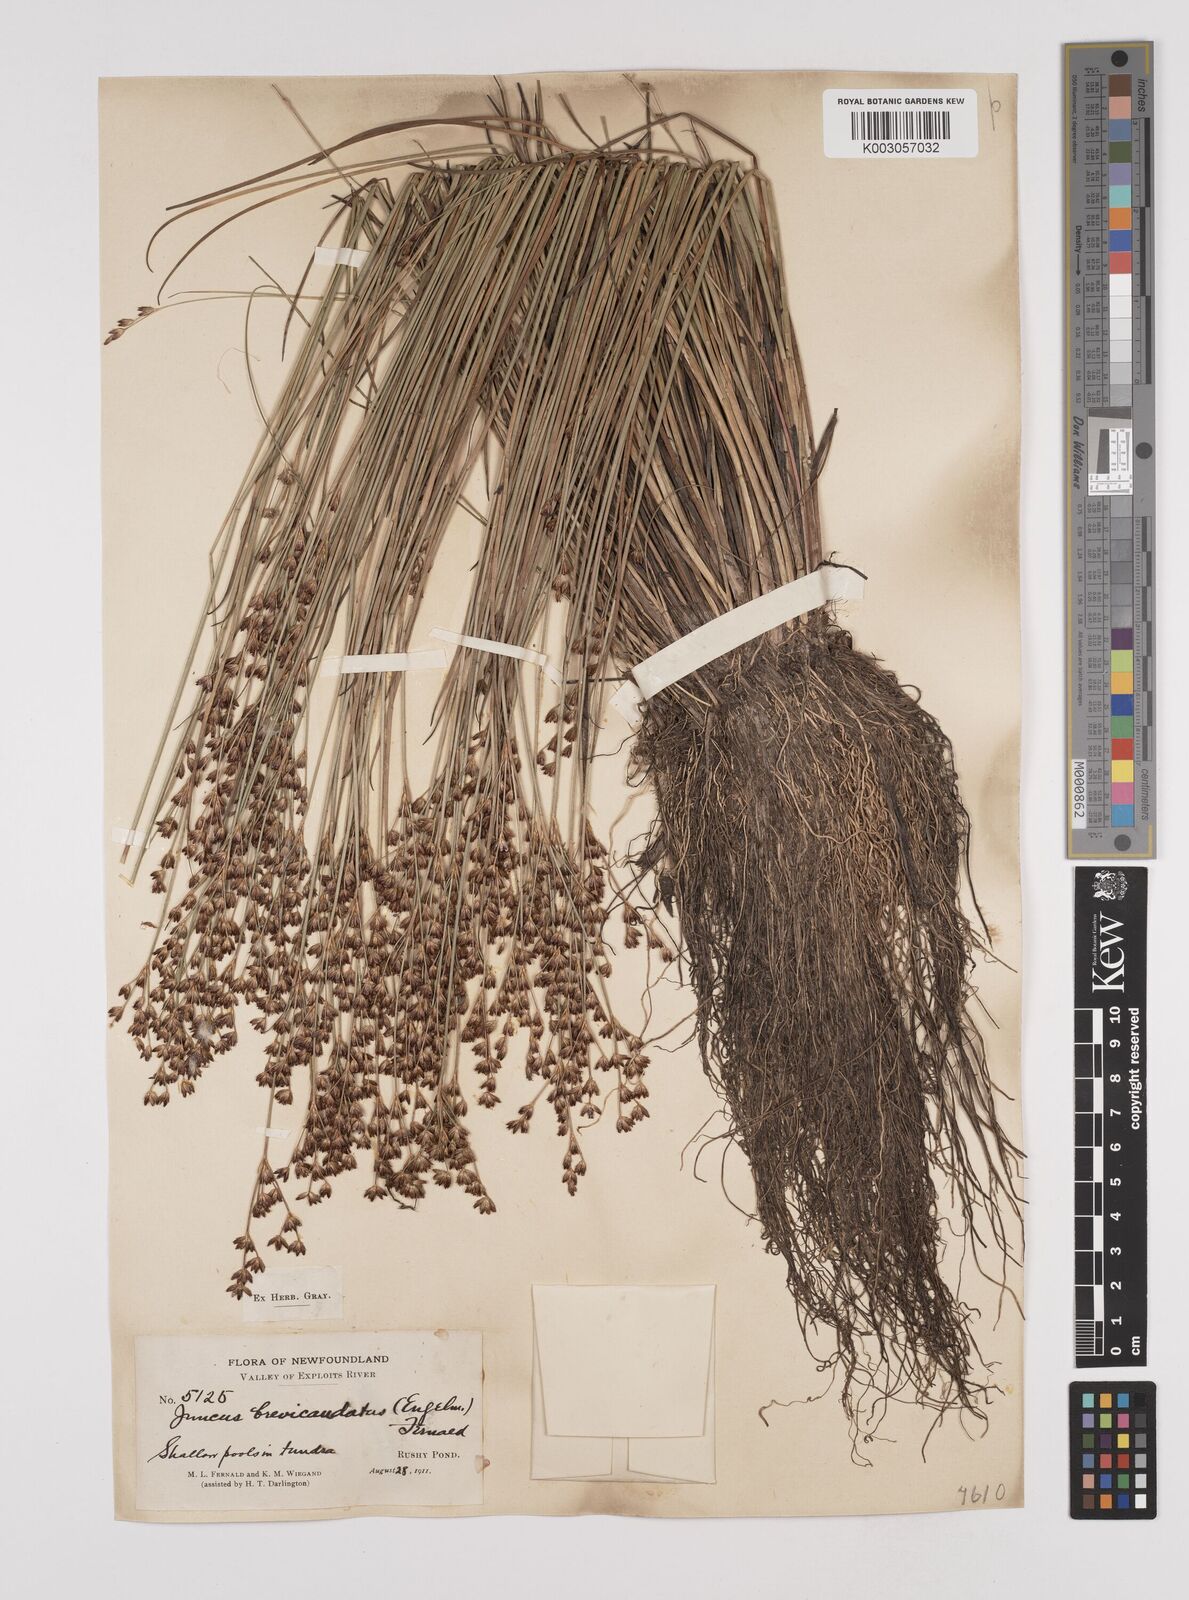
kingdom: Plantae
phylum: Tracheophyta
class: Liliopsida
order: Poales
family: Juncaceae
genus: Juncus
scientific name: Juncus canadensis
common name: Canada rush
